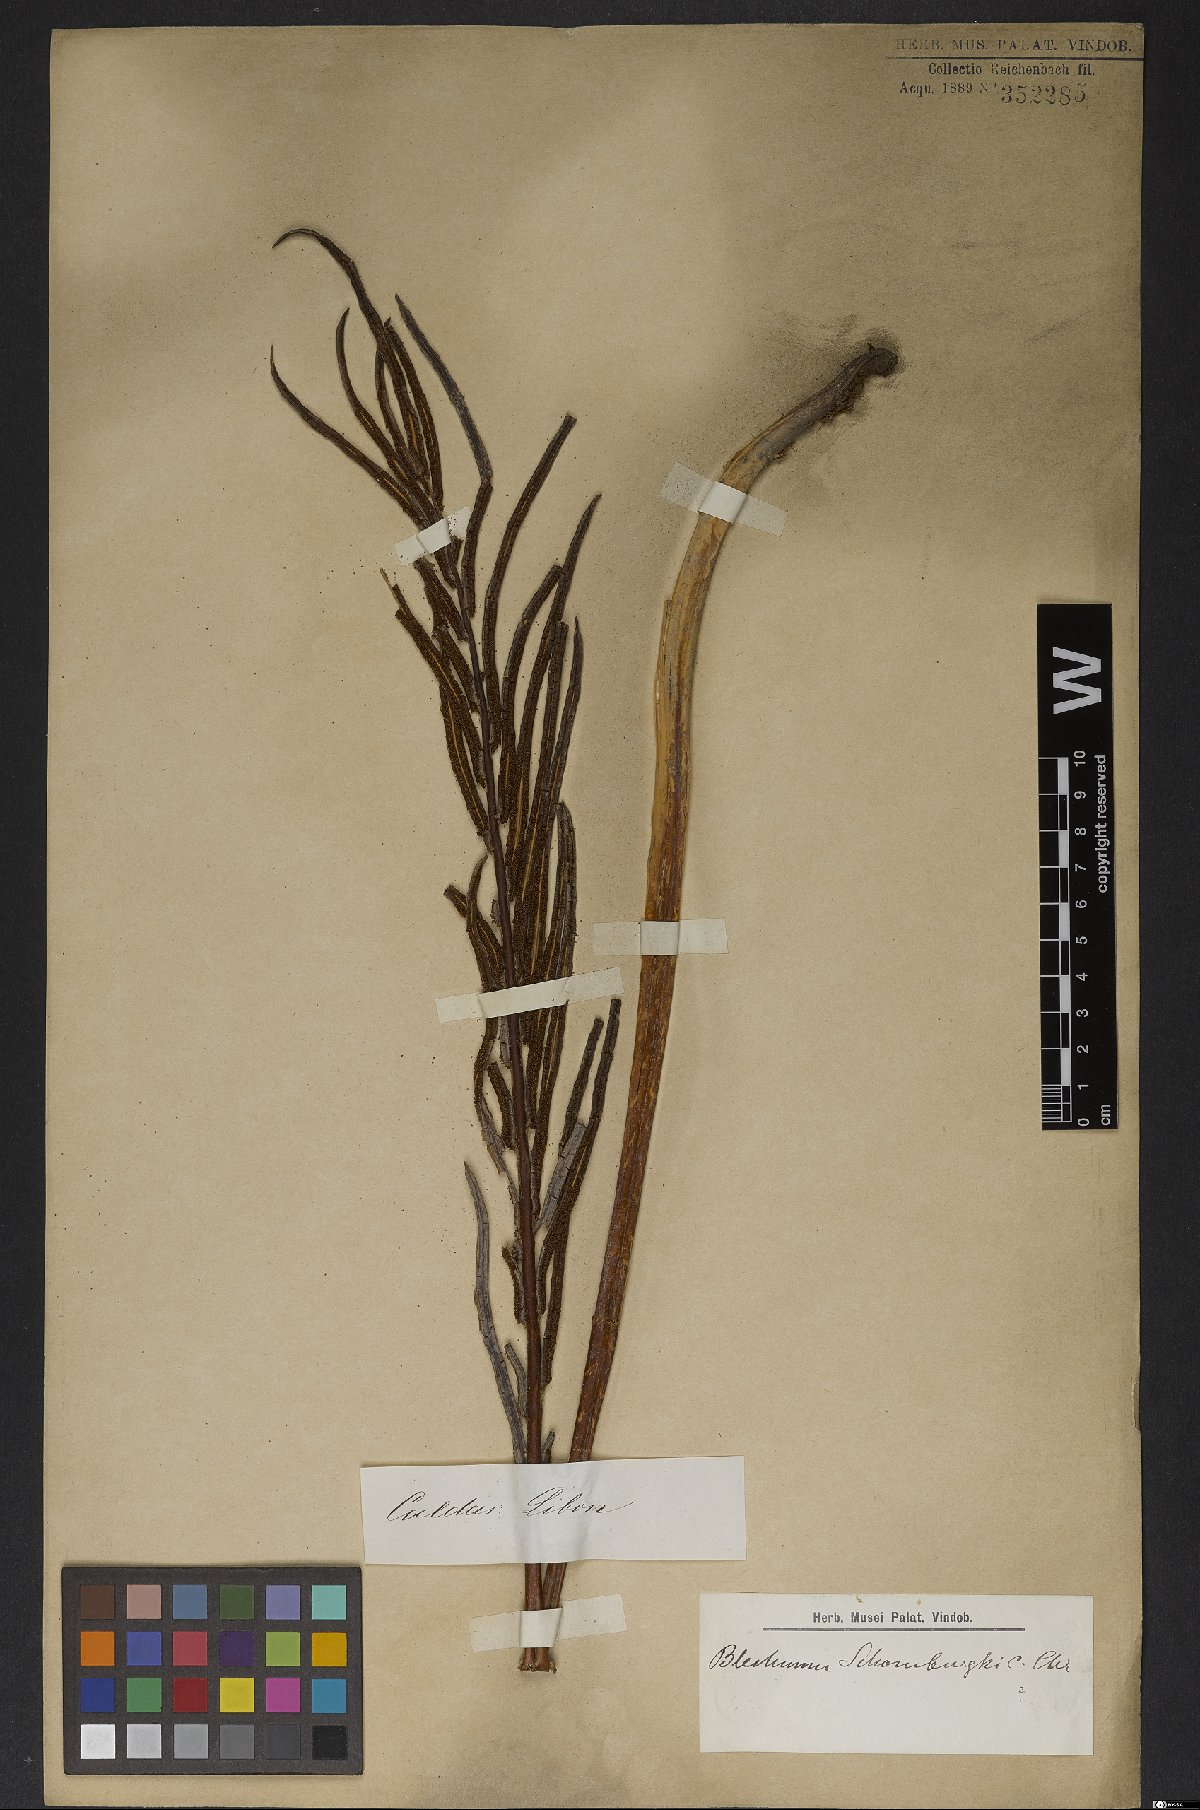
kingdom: Plantae
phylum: Tracheophyta
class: Polypodiopsida
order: Polypodiales
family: Blechnaceae
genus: Lomariocycas
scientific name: Lomariocycas schomburgkii
